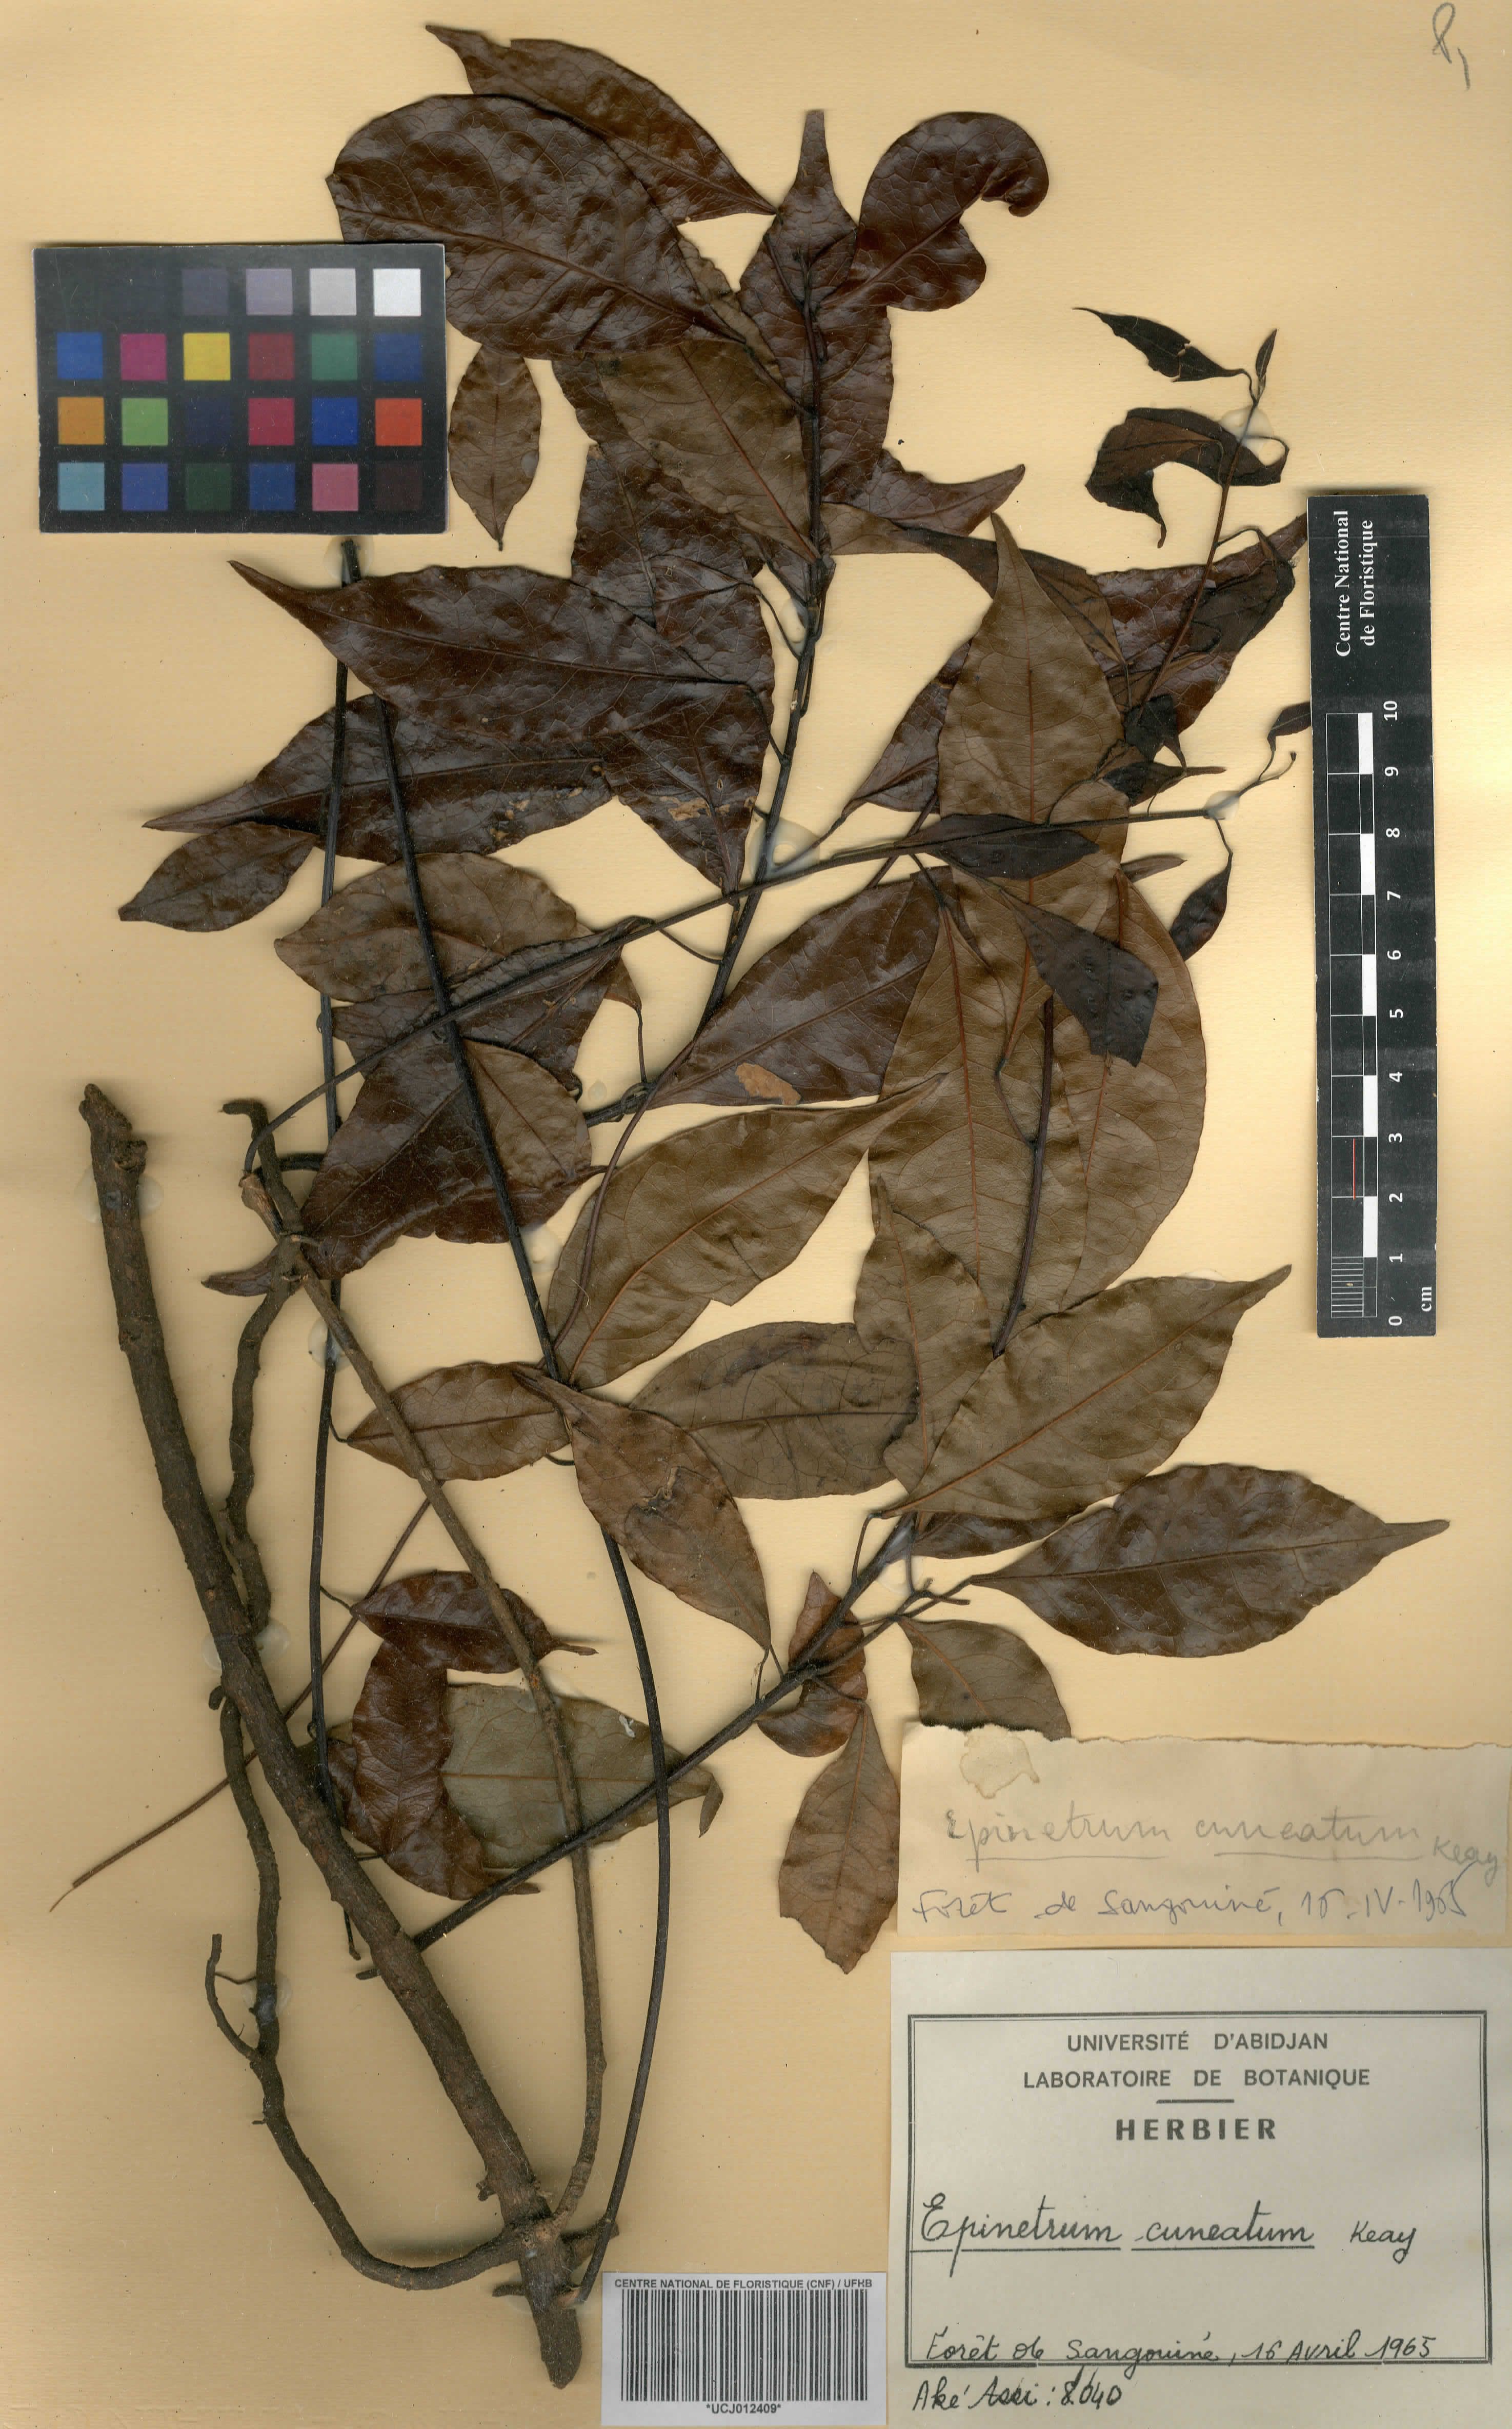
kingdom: Plantae
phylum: Tracheophyta
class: Magnoliopsida
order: Ranunculales
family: Menispermaceae
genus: Albertisia
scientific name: Albertisia cuneata
